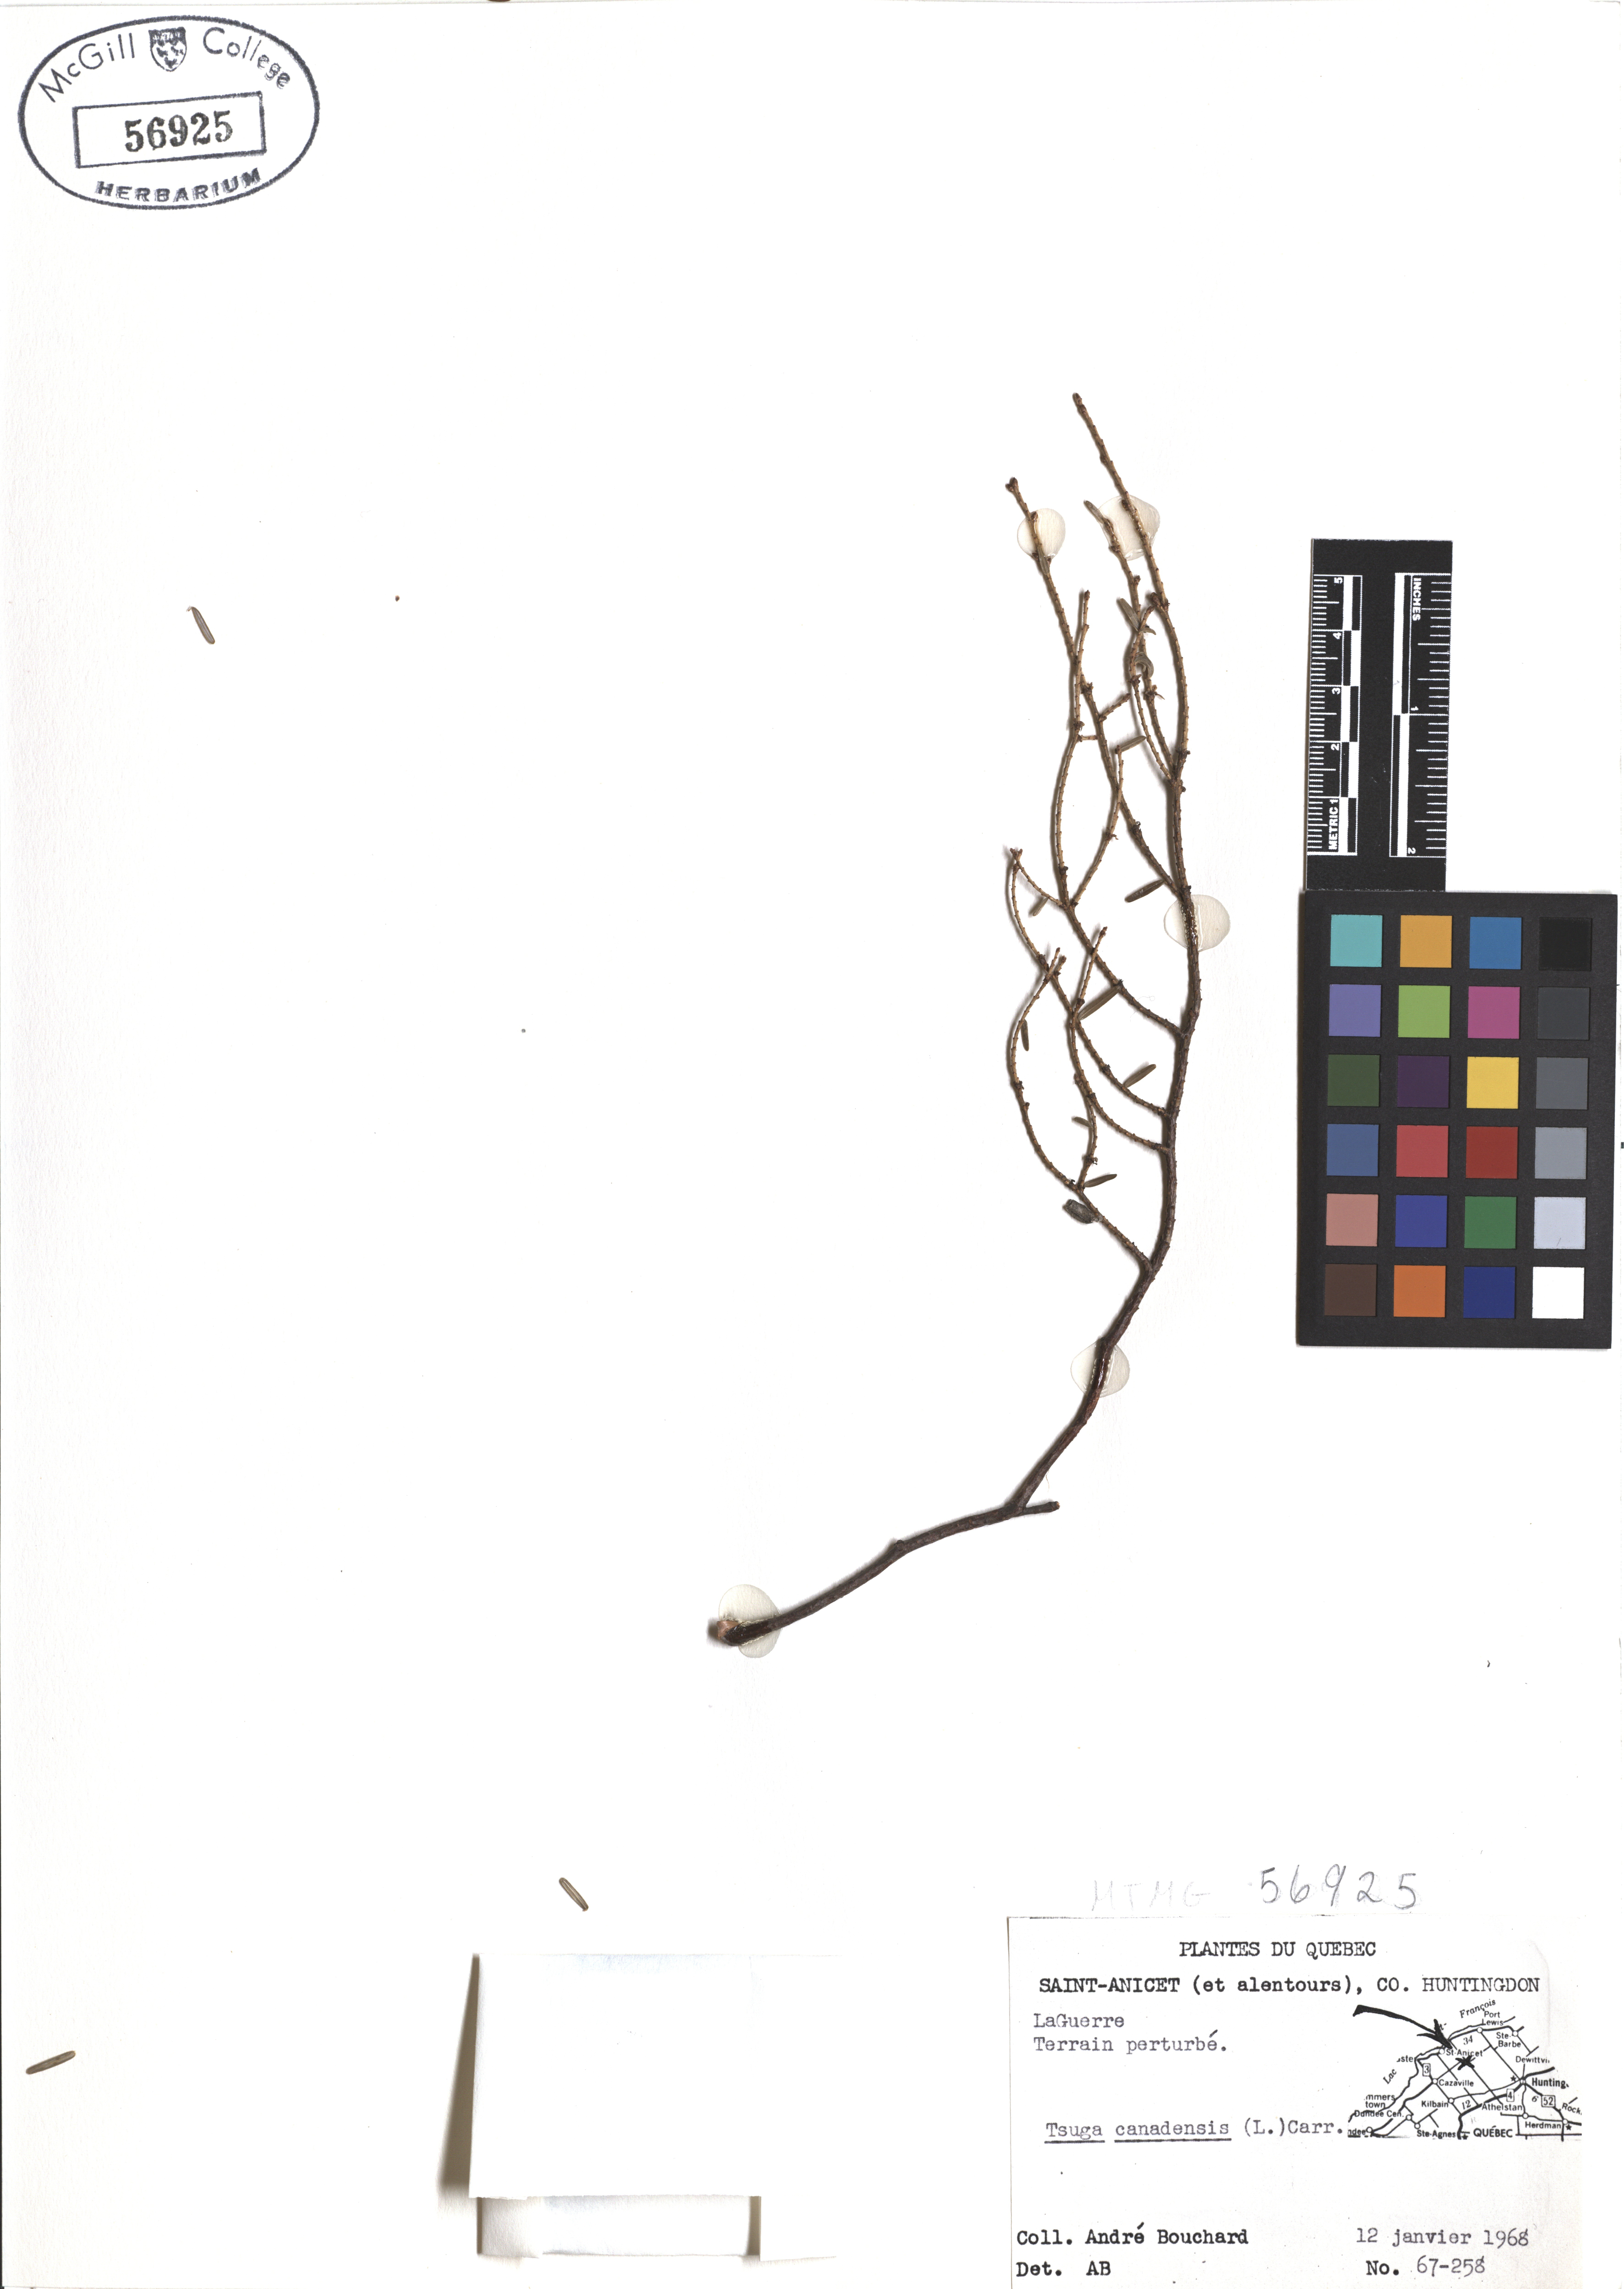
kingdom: Plantae
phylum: Tracheophyta
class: Pinopsida
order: Pinales
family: Pinaceae
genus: Tsuga
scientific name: Tsuga canadensis
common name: Eastern hemlock
